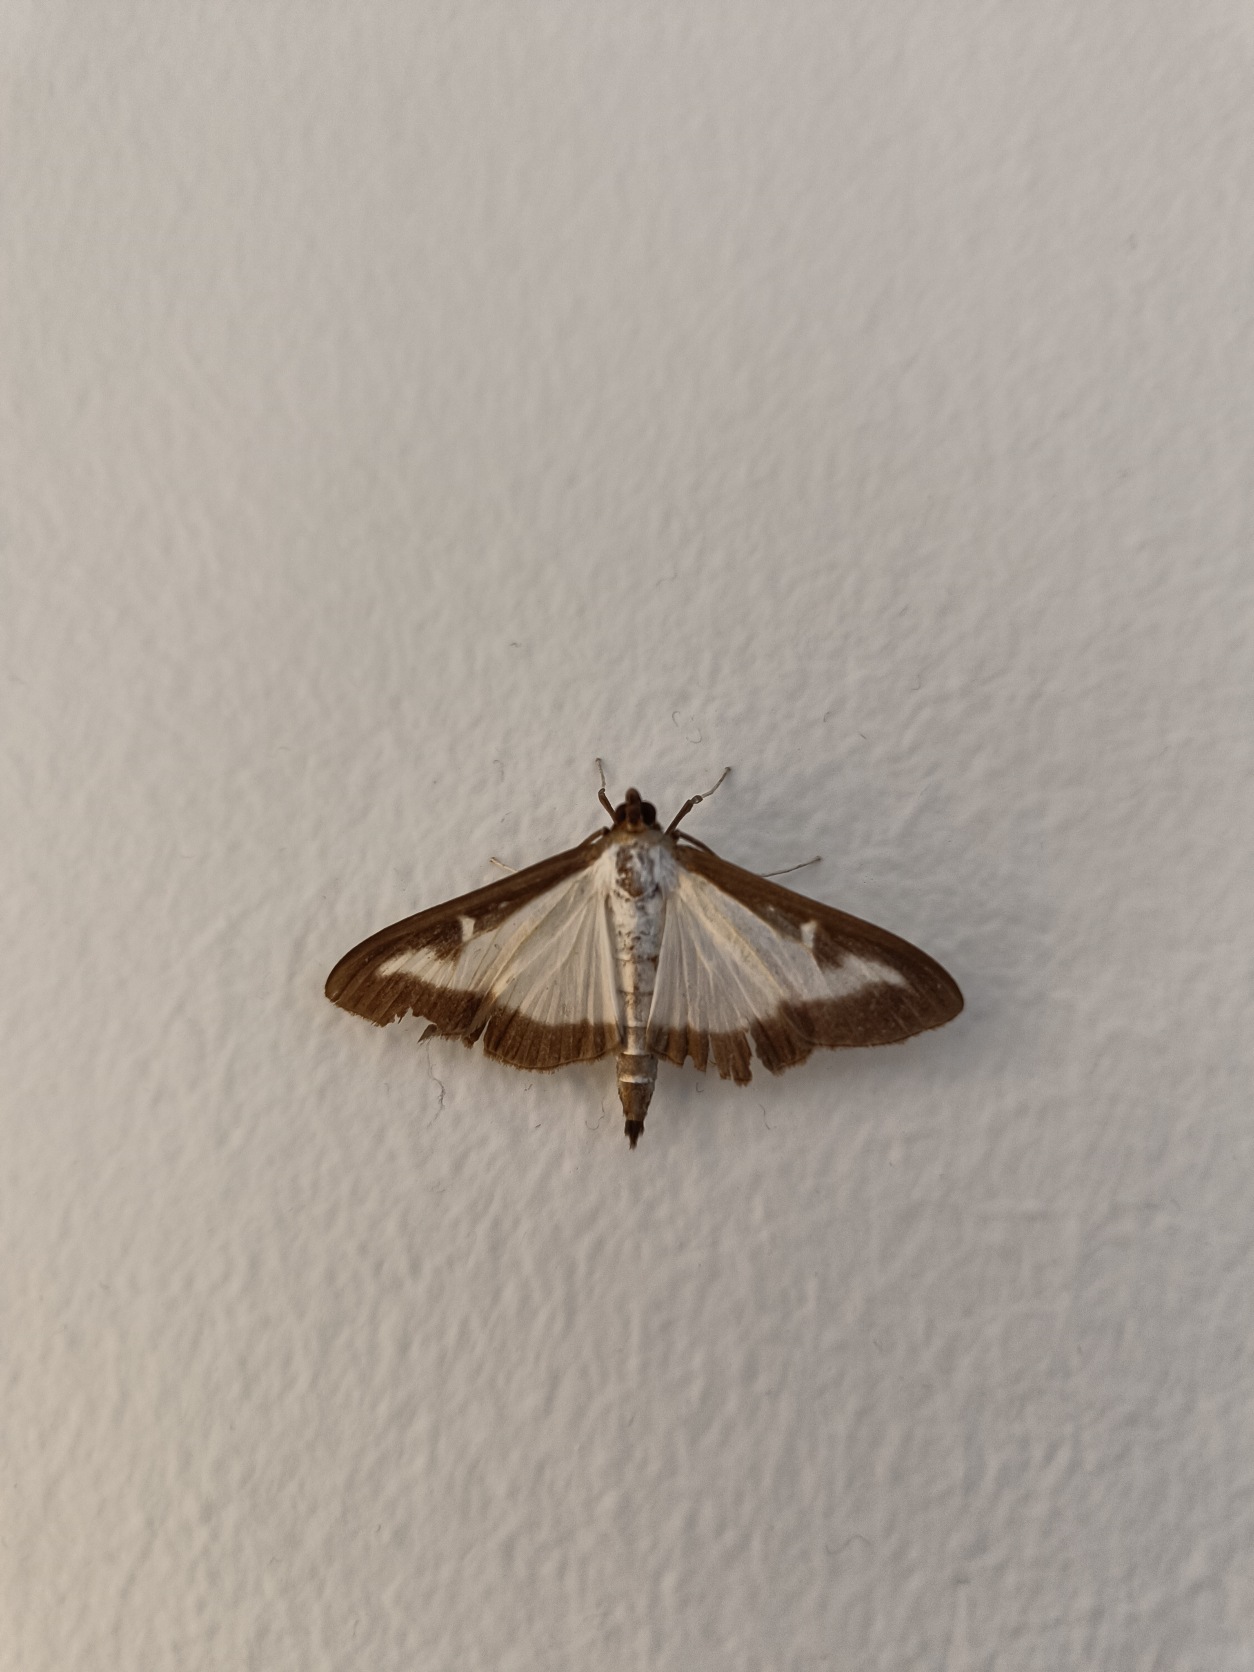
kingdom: Animalia
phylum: Arthropoda
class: Insecta
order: Lepidoptera
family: Crambidae
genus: Cydalima
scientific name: Cydalima perspectalis
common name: Buksbomhalvmøl
